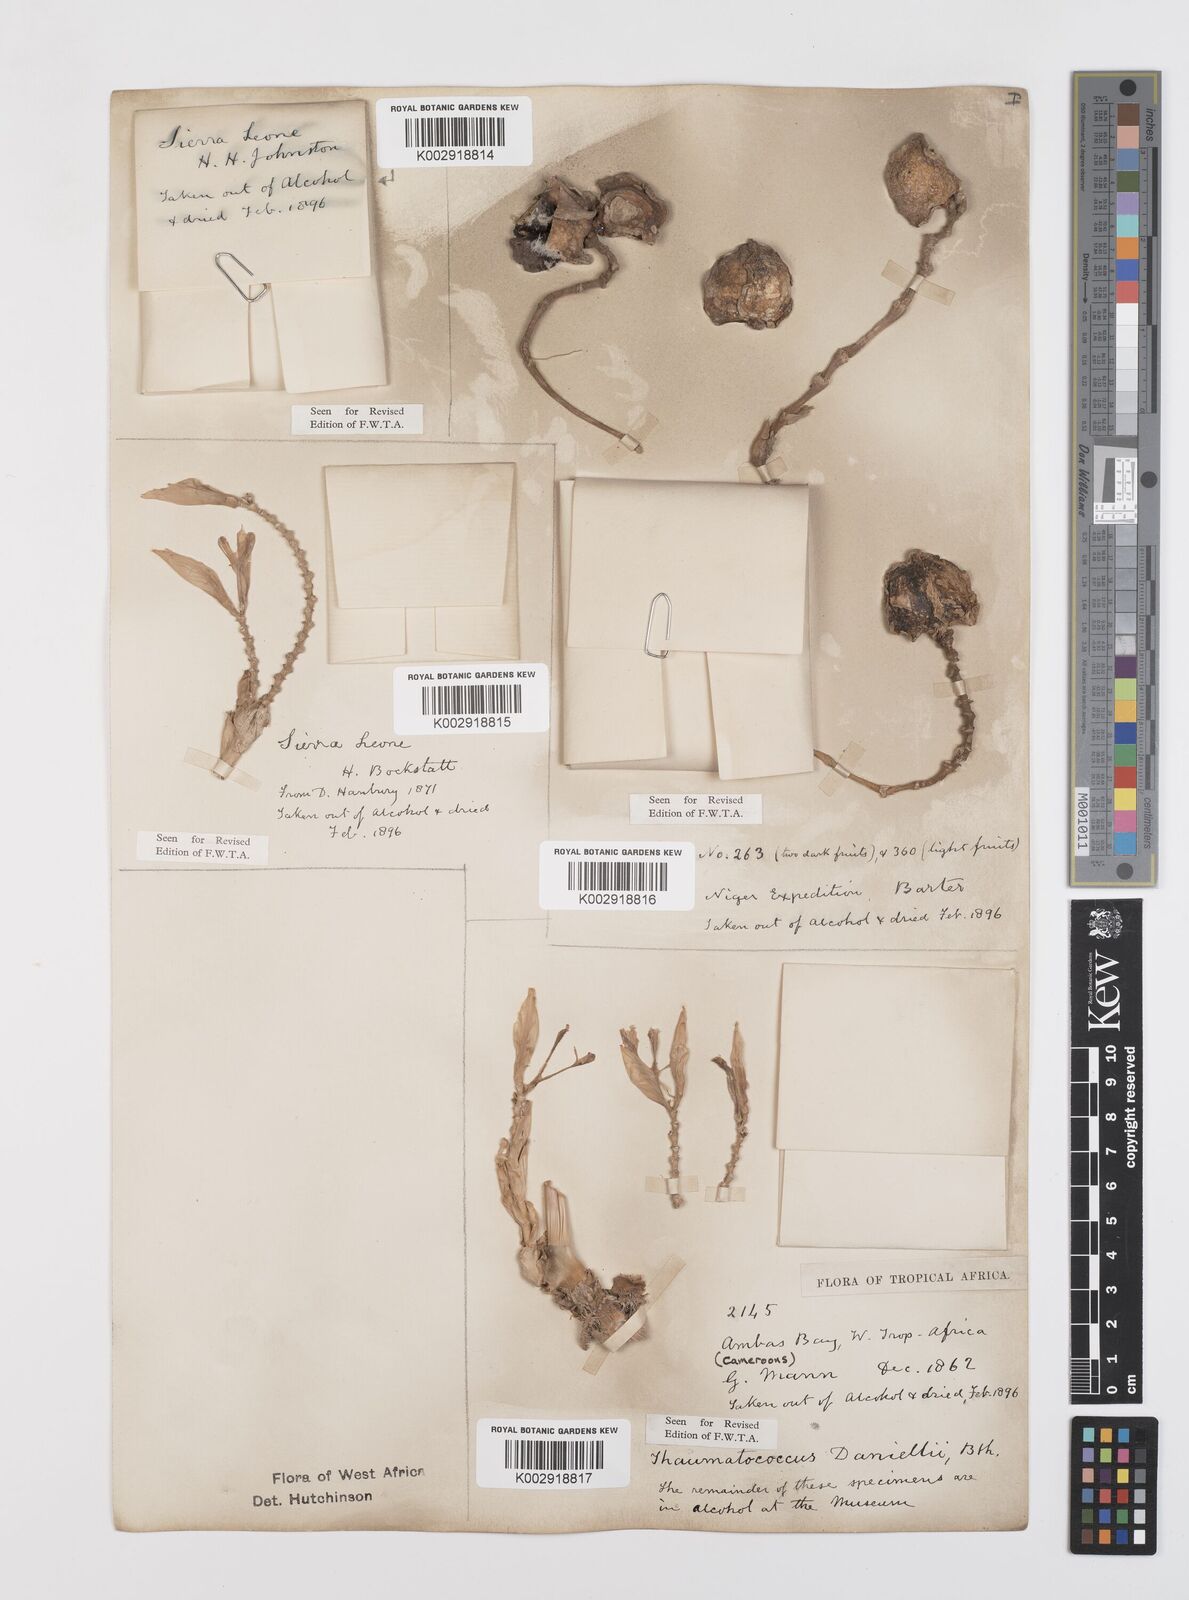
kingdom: Plantae
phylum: Tracheophyta
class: Liliopsida
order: Zingiberales
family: Marantaceae
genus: Thaumatococcus
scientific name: Thaumatococcus daniellii
